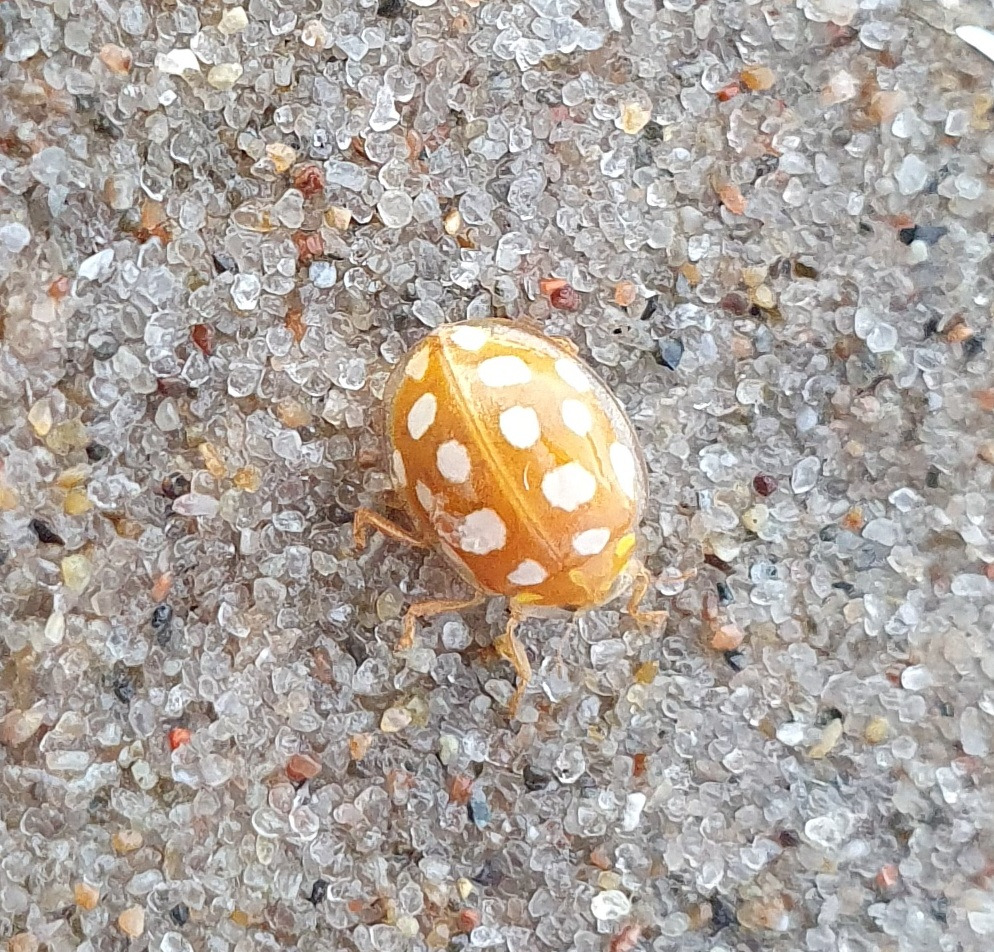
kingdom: Animalia
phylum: Arthropoda
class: Insecta
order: Coleoptera
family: Coccinellidae
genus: Halyzia
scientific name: Halyzia sedecimguttata
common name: Sekstenplettet mariehøne
